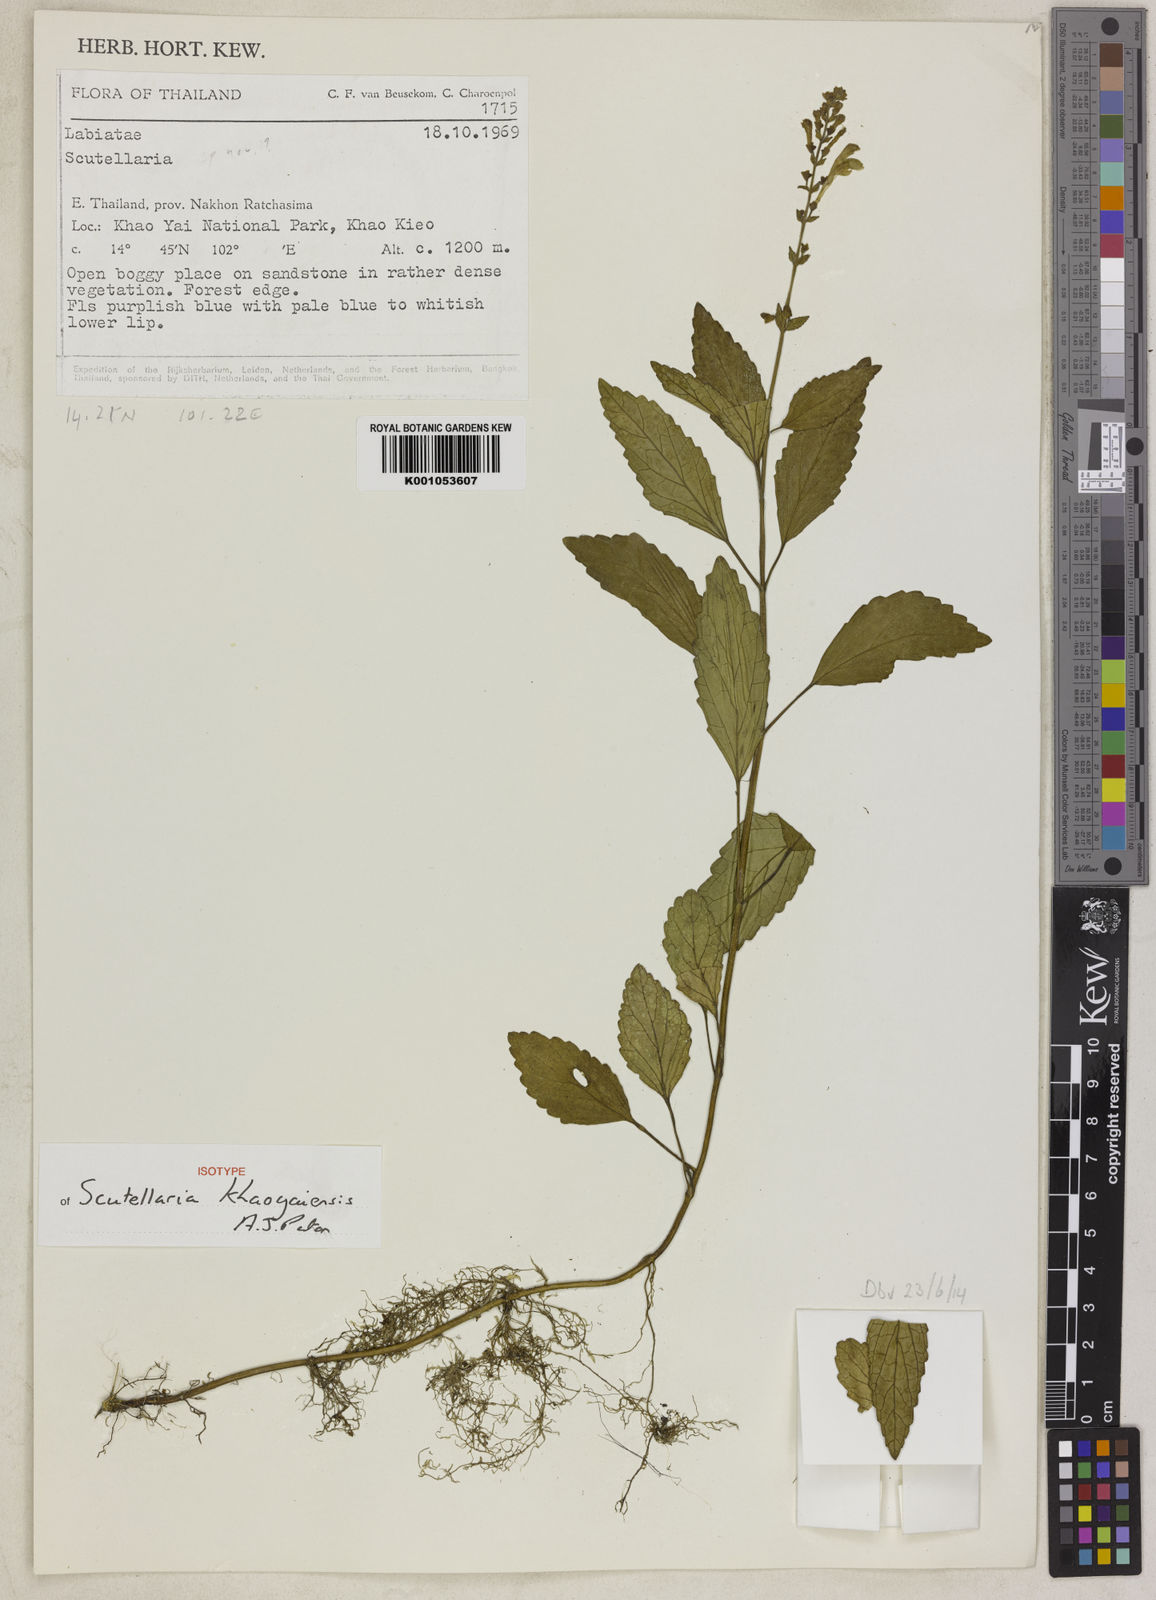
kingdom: Plantae
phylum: Tracheophyta
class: Magnoliopsida
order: Lamiales
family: Lamiaceae
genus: Scutellaria
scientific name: Scutellaria khaoyaiensis
